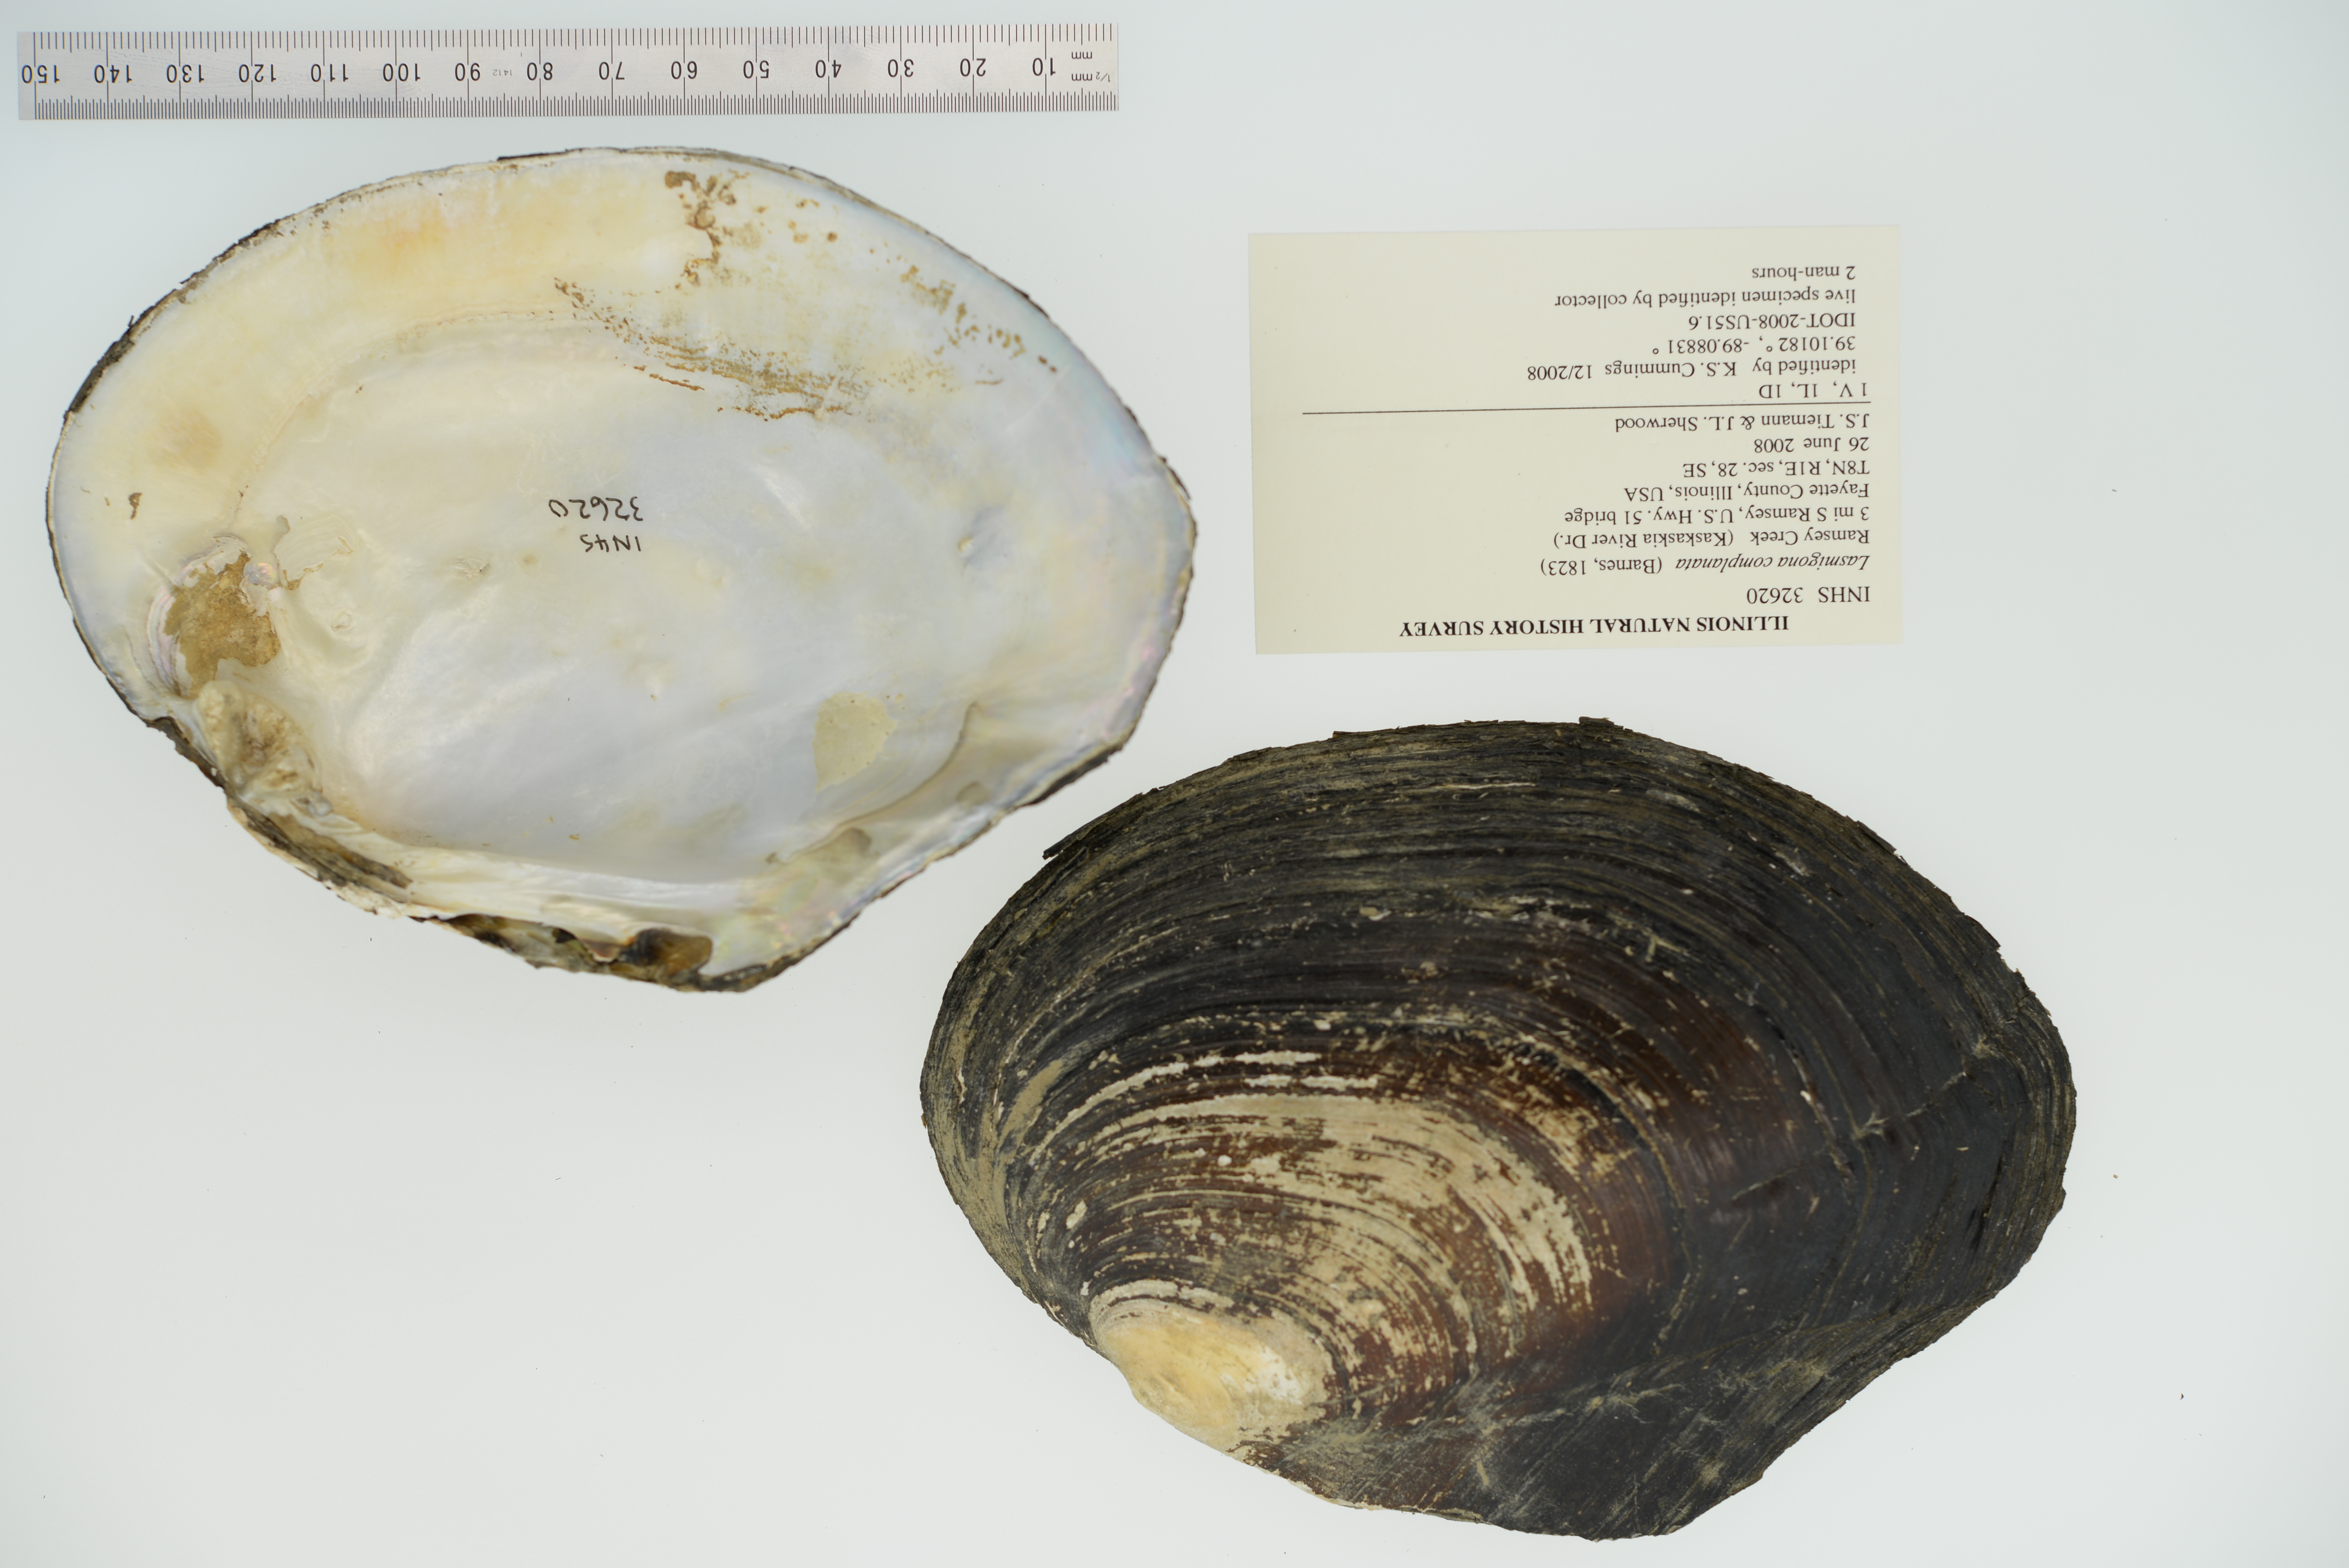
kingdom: Animalia
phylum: Mollusca
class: Bivalvia
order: Unionida
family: Unionidae
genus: Lasmigona
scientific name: Lasmigona complanata
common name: White heelsplitter
